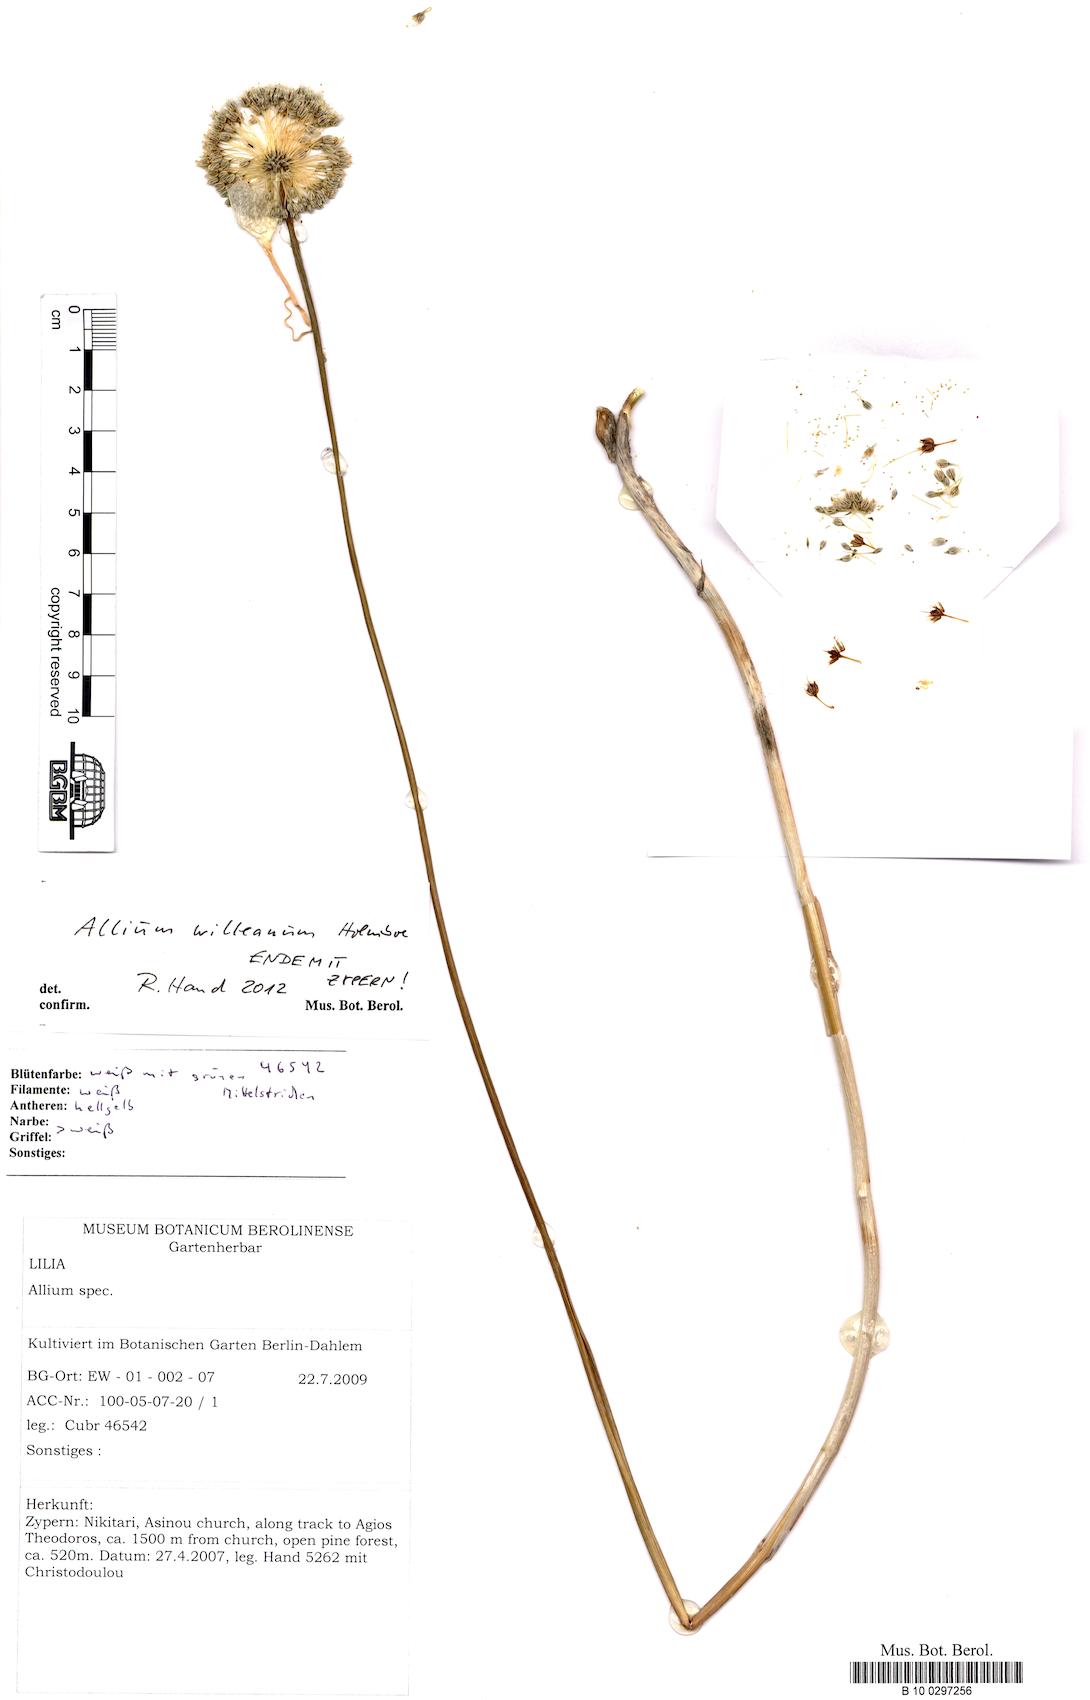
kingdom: Plantae
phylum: Tracheophyta
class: Liliopsida
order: Asparagales
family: Amaryllidaceae
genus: Allium
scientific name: Allium willeanum
